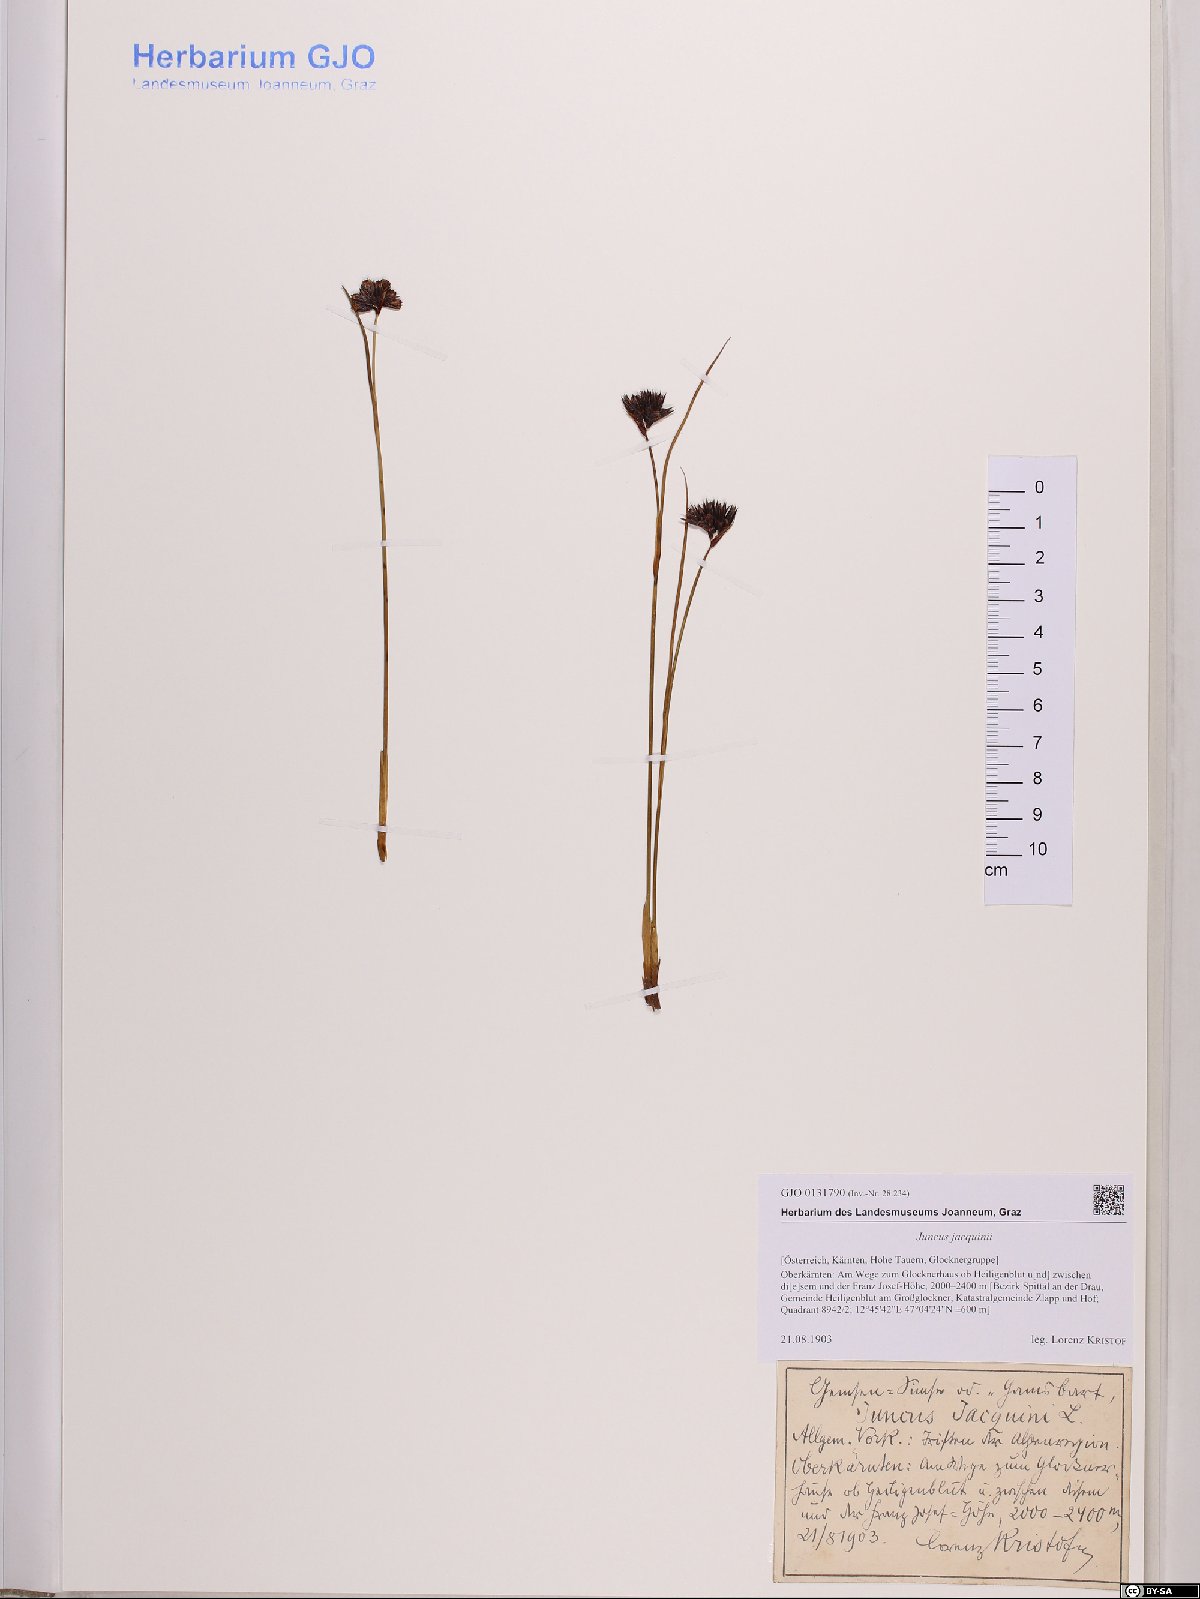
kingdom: Plantae
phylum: Tracheophyta
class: Liliopsida
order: Poales
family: Juncaceae
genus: Juncus
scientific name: Juncus jacquinii
